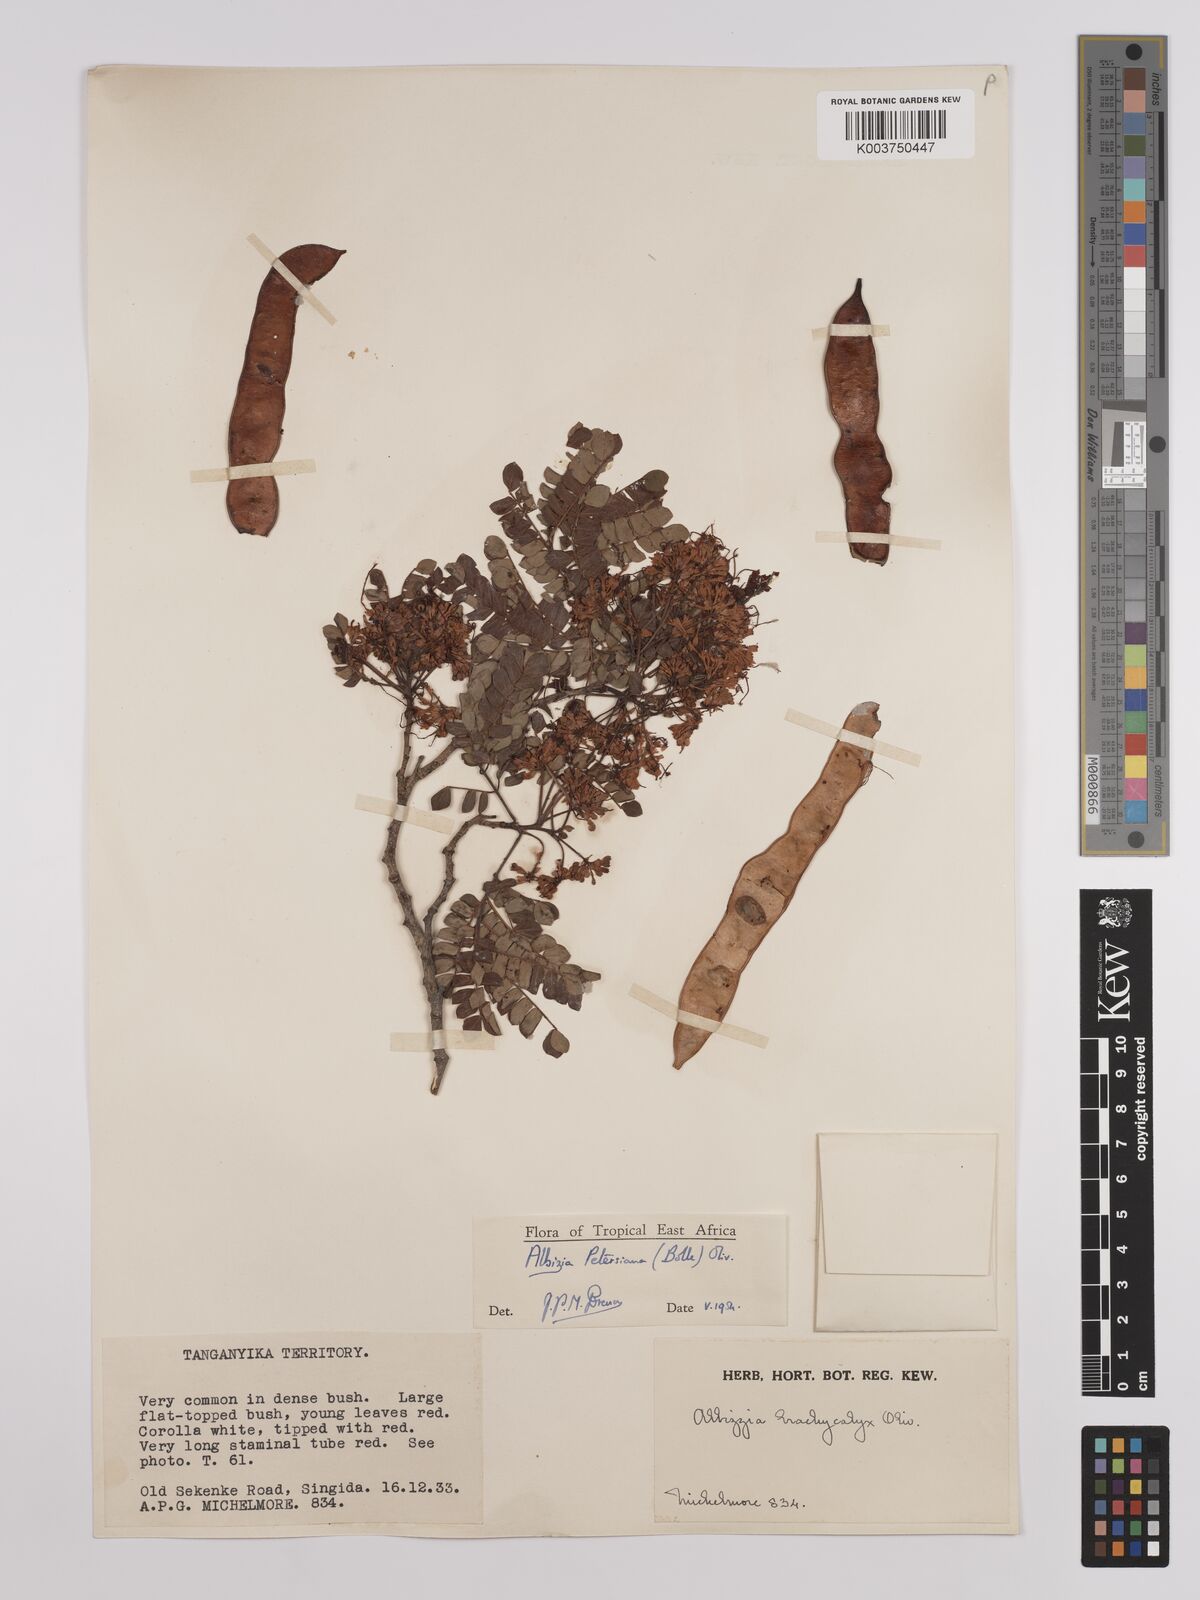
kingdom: Plantae
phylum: Tracheophyta
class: Magnoliopsida
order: Fabales
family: Fabaceae
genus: Albizia
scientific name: Albizia petersiana
